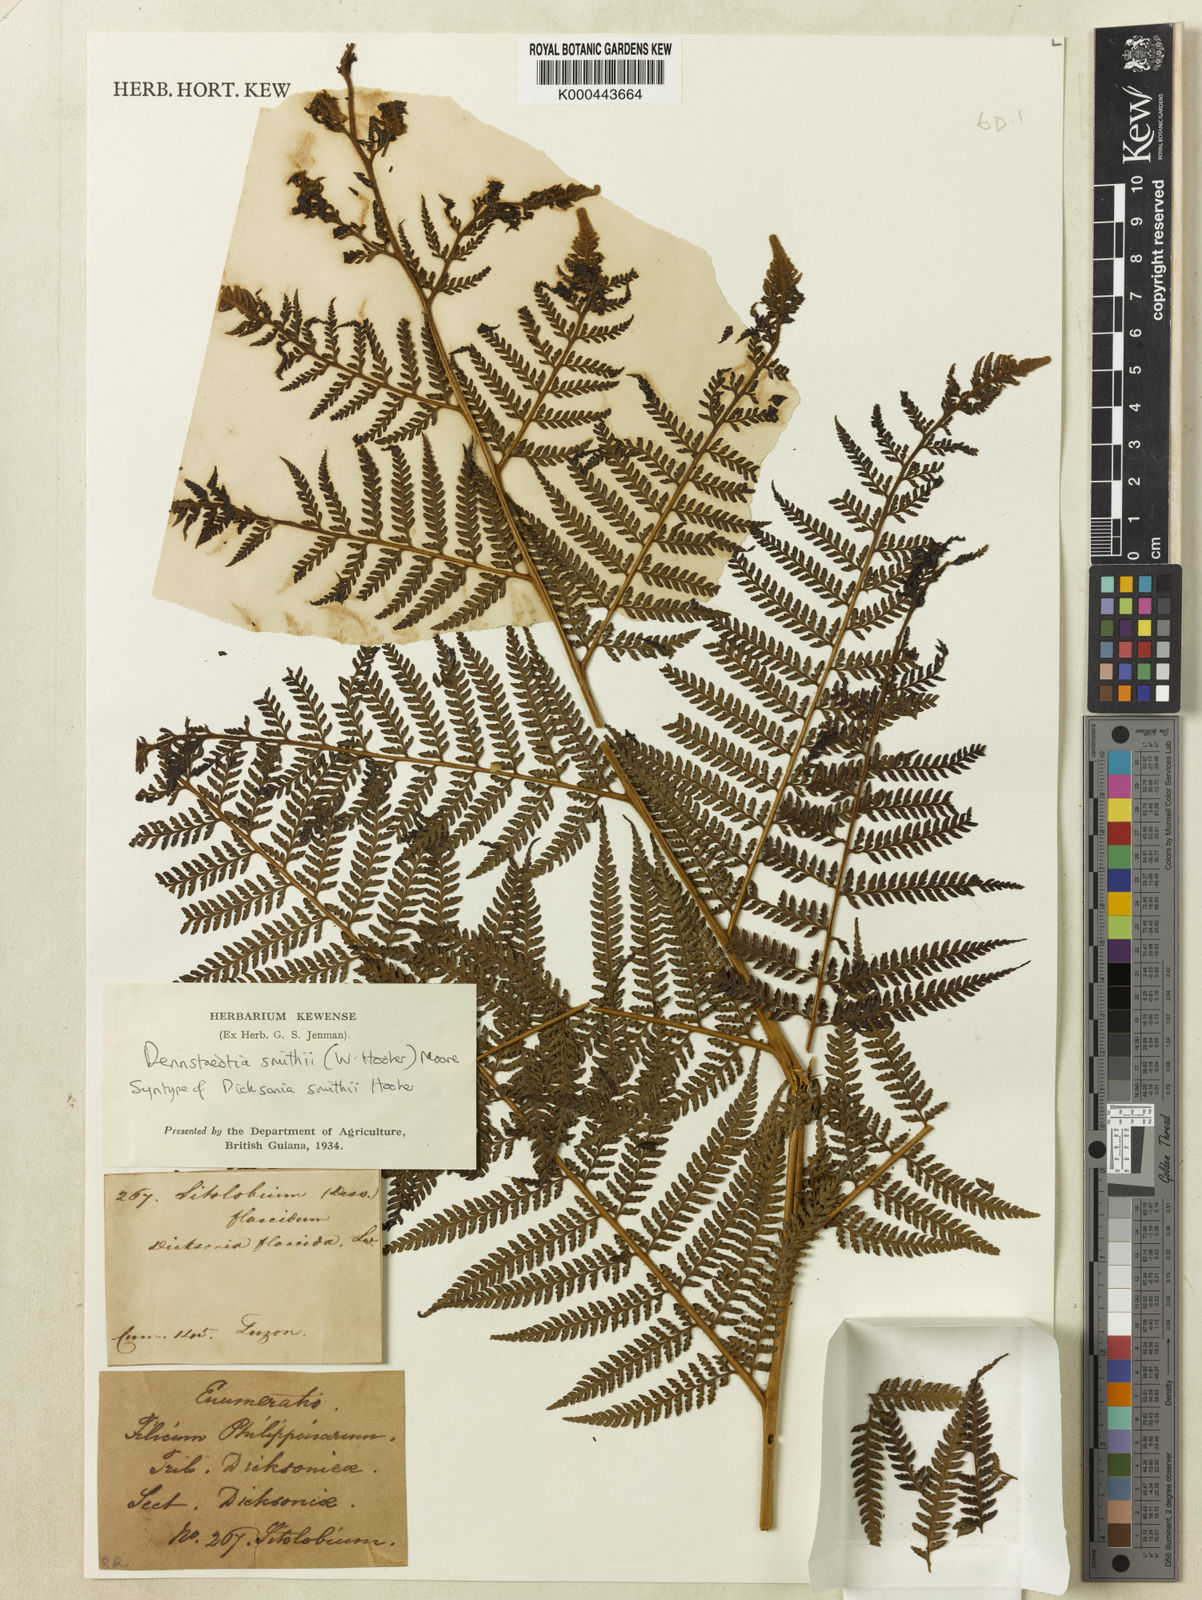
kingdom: Plantae
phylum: Tracheophyta
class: Polypodiopsida
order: Polypodiales
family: Dennstaedtiaceae
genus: Microlepia
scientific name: Microlepia smithii
